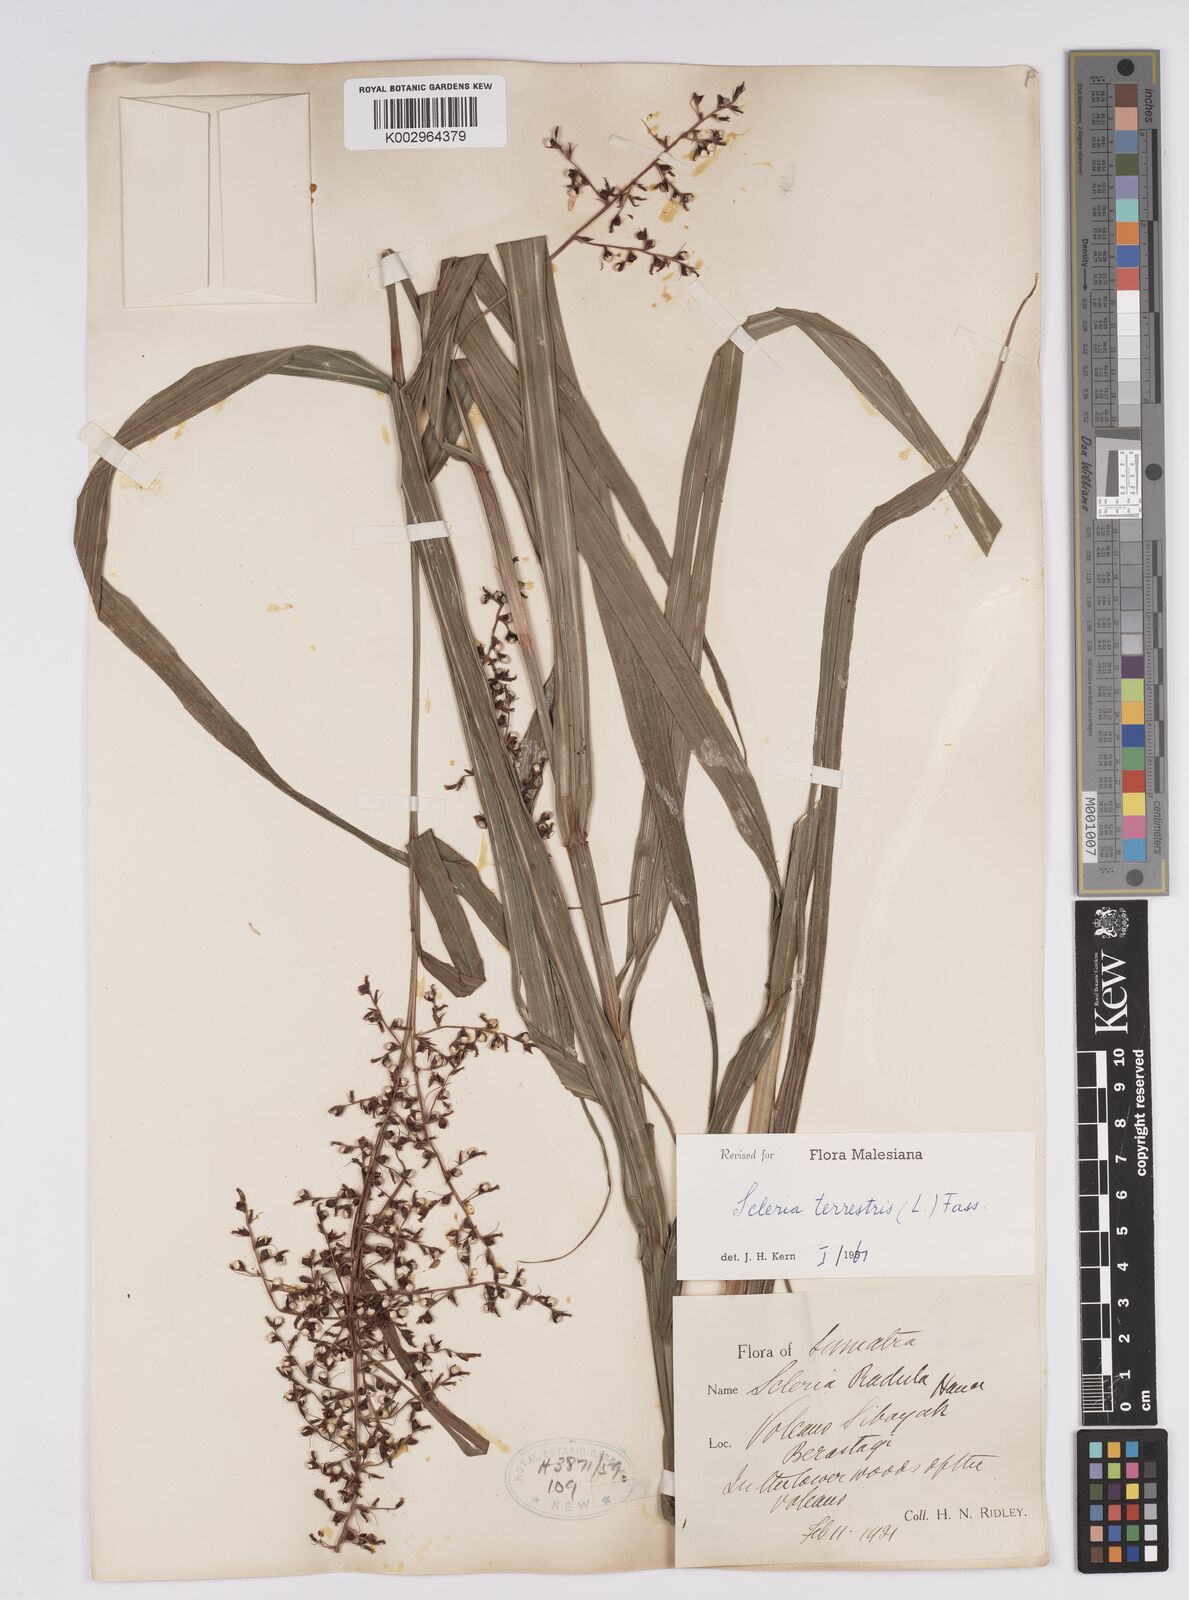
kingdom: Plantae
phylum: Tracheophyta
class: Liliopsida
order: Poales
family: Cyperaceae
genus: Scleria
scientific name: Scleria terrestris
